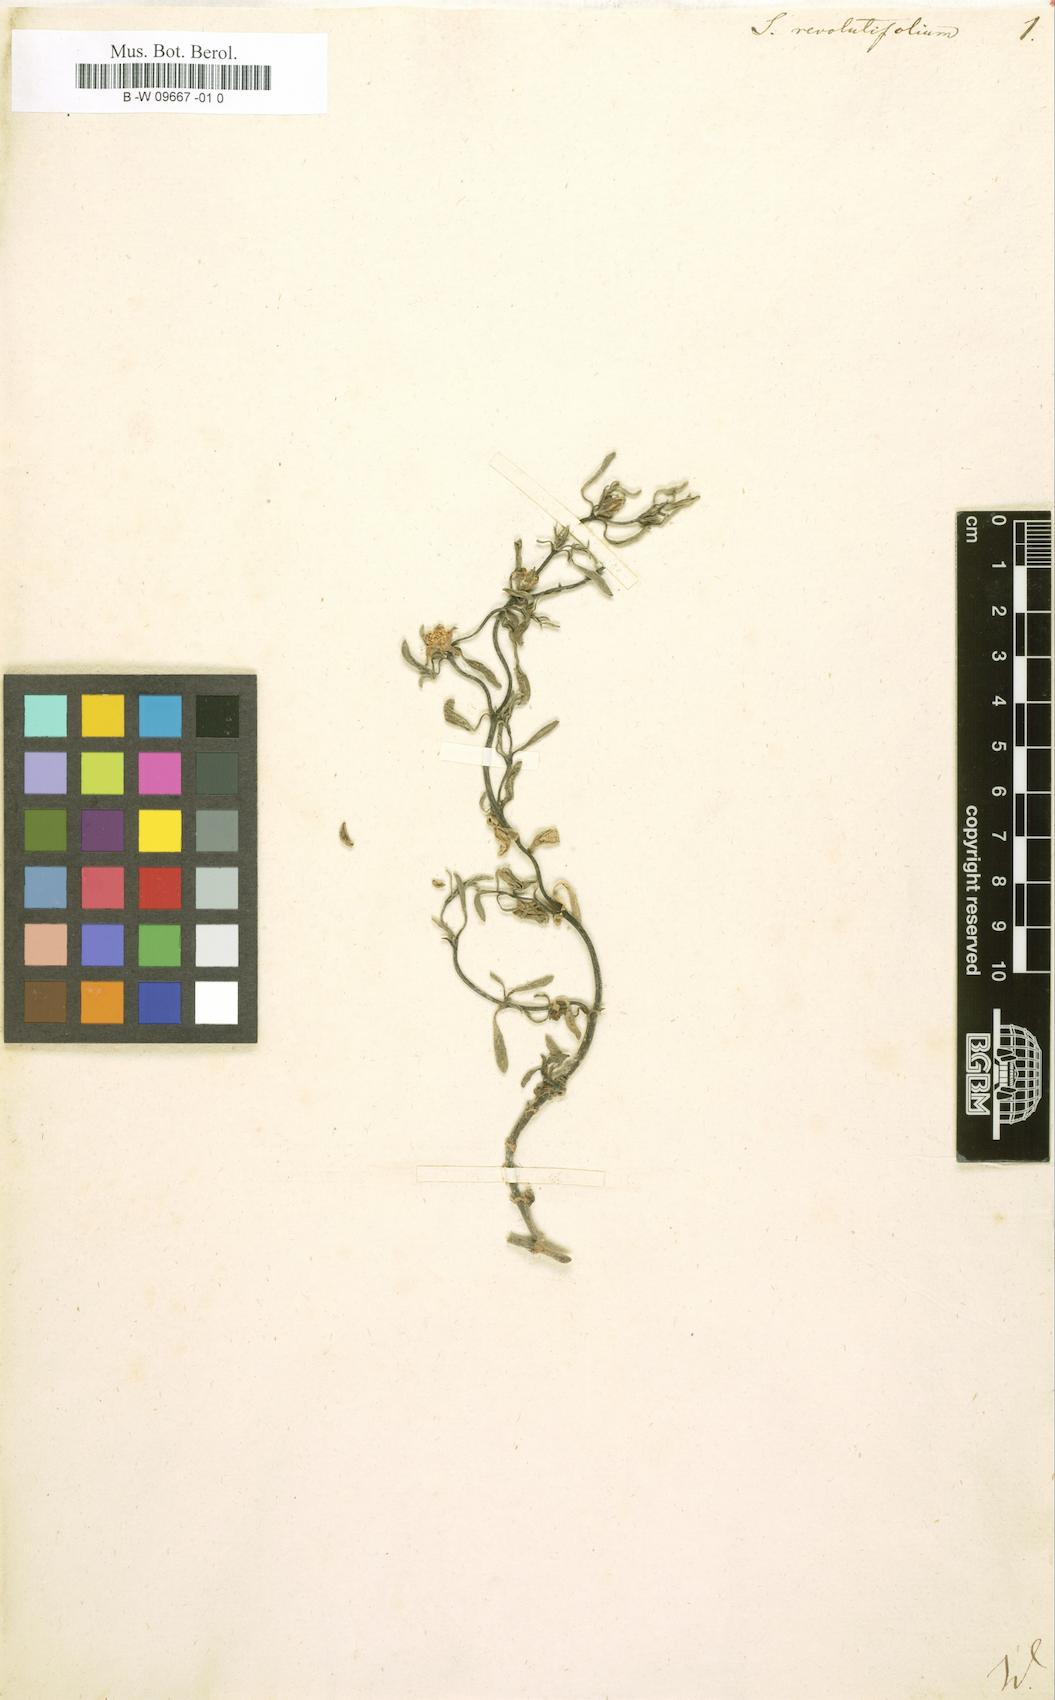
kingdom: Plantae
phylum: Tracheophyta
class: Magnoliopsida
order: Caryophyllales
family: Aizoaceae
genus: Sesuvium
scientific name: Sesuvium revolutifolium
